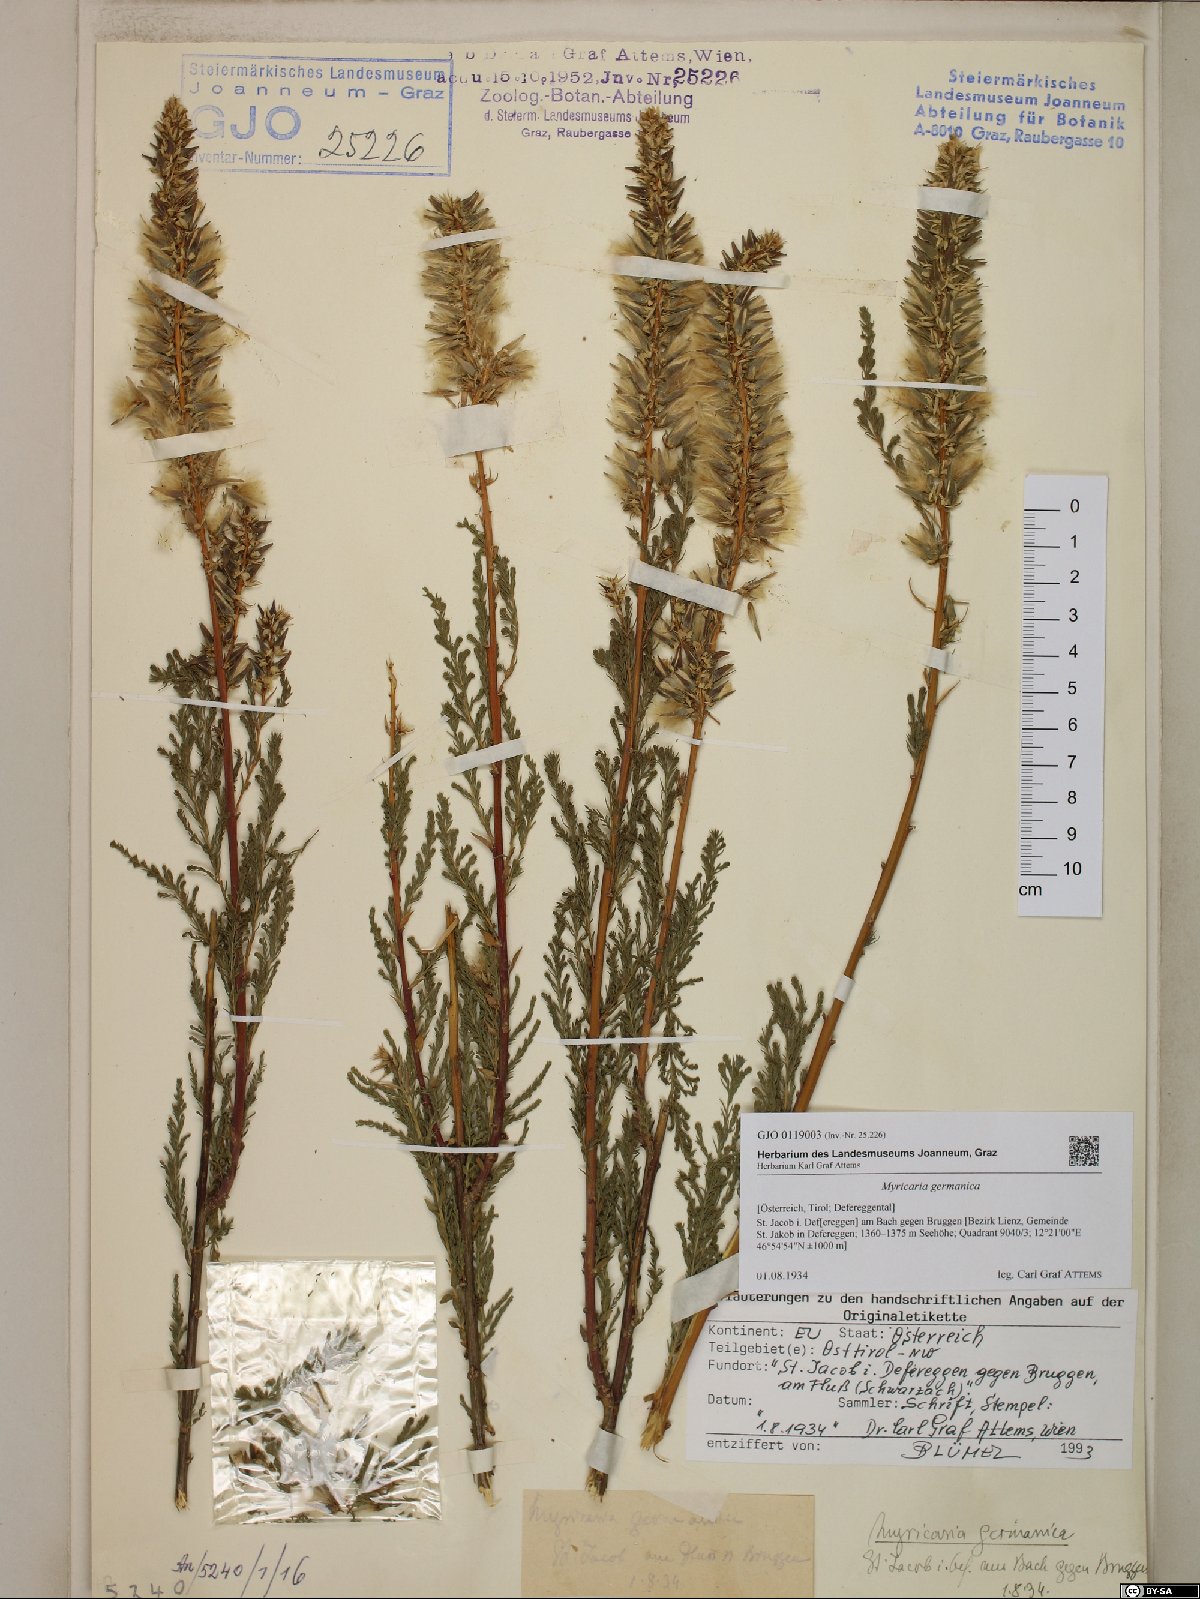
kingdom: Plantae
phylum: Tracheophyta
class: Magnoliopsida
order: Caryophyllales
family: Tamaricaceae
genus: Myricaria
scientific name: Myricaria germanica
